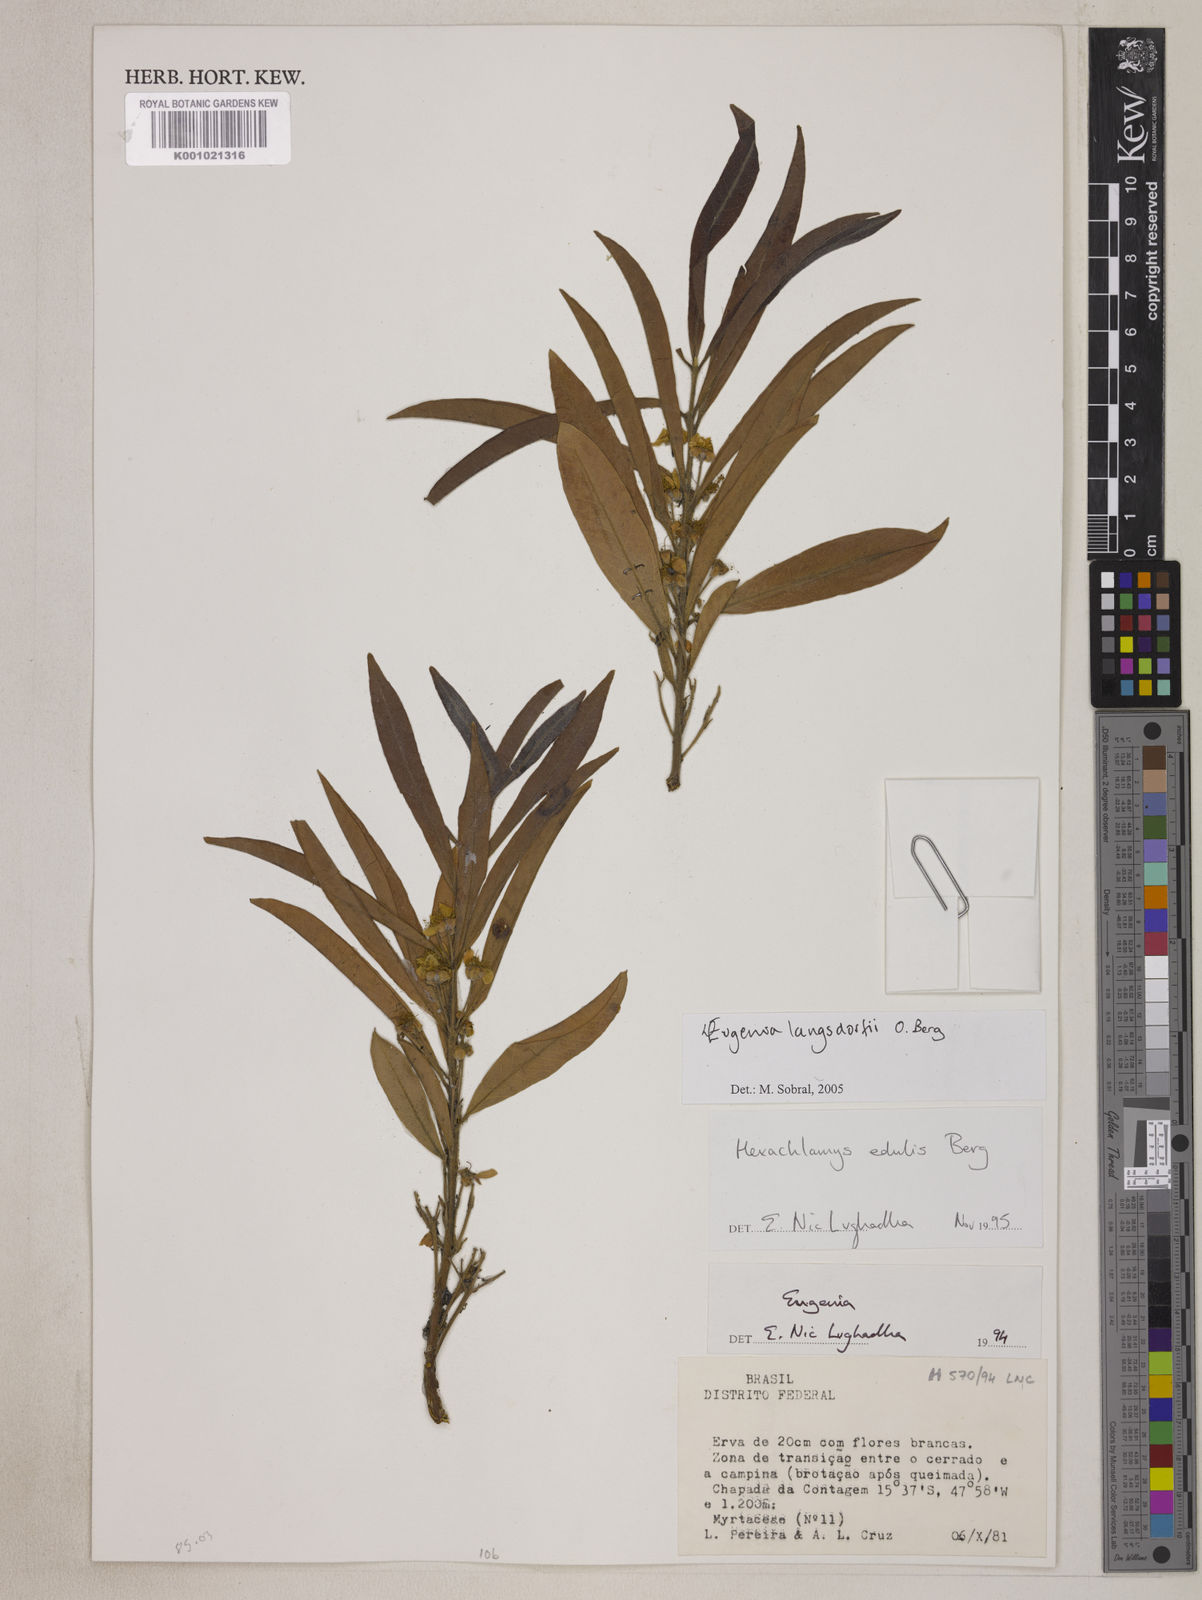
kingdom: Plantae
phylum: Tracheophyta
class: Magnoliopsida
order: Myrtales
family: Myrtaceae
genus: Eugenia
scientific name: Eugenia langsdorffii
